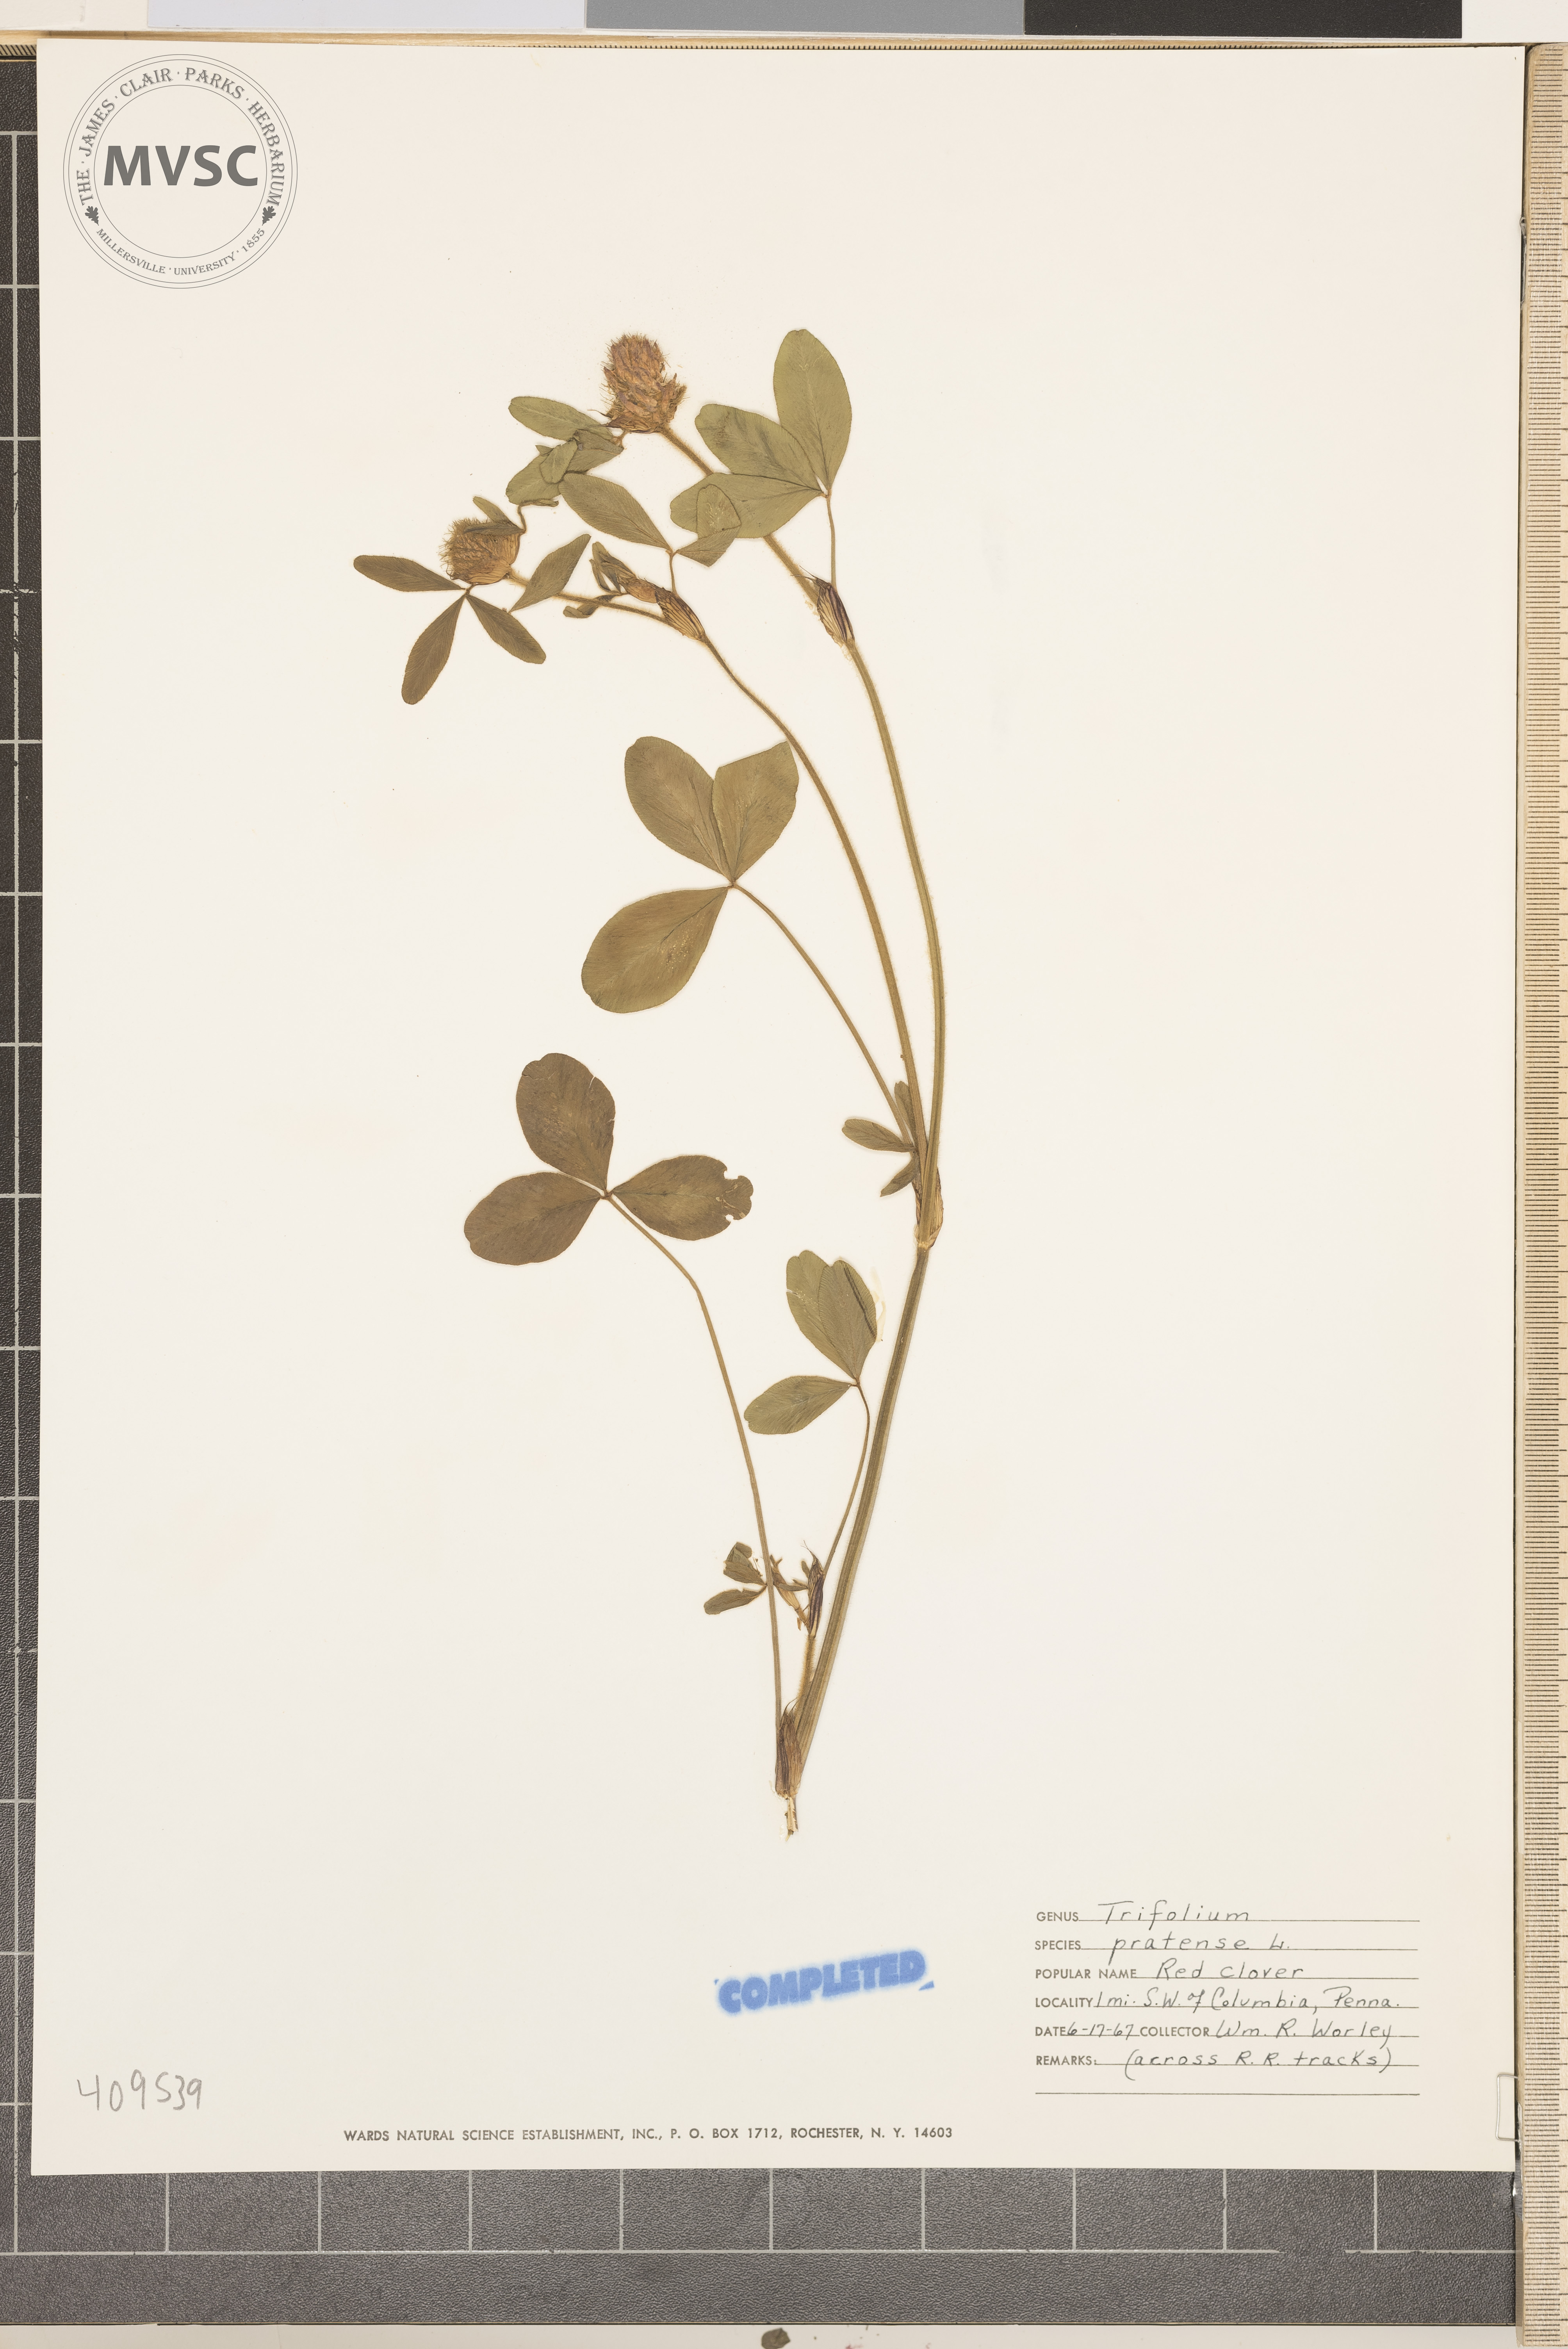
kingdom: Plantae
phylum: Tracheophyta
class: Magnoliopsida
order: Fabales
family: Fabaceae
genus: Trifolium
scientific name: Trifolium pratense
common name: Red clover
